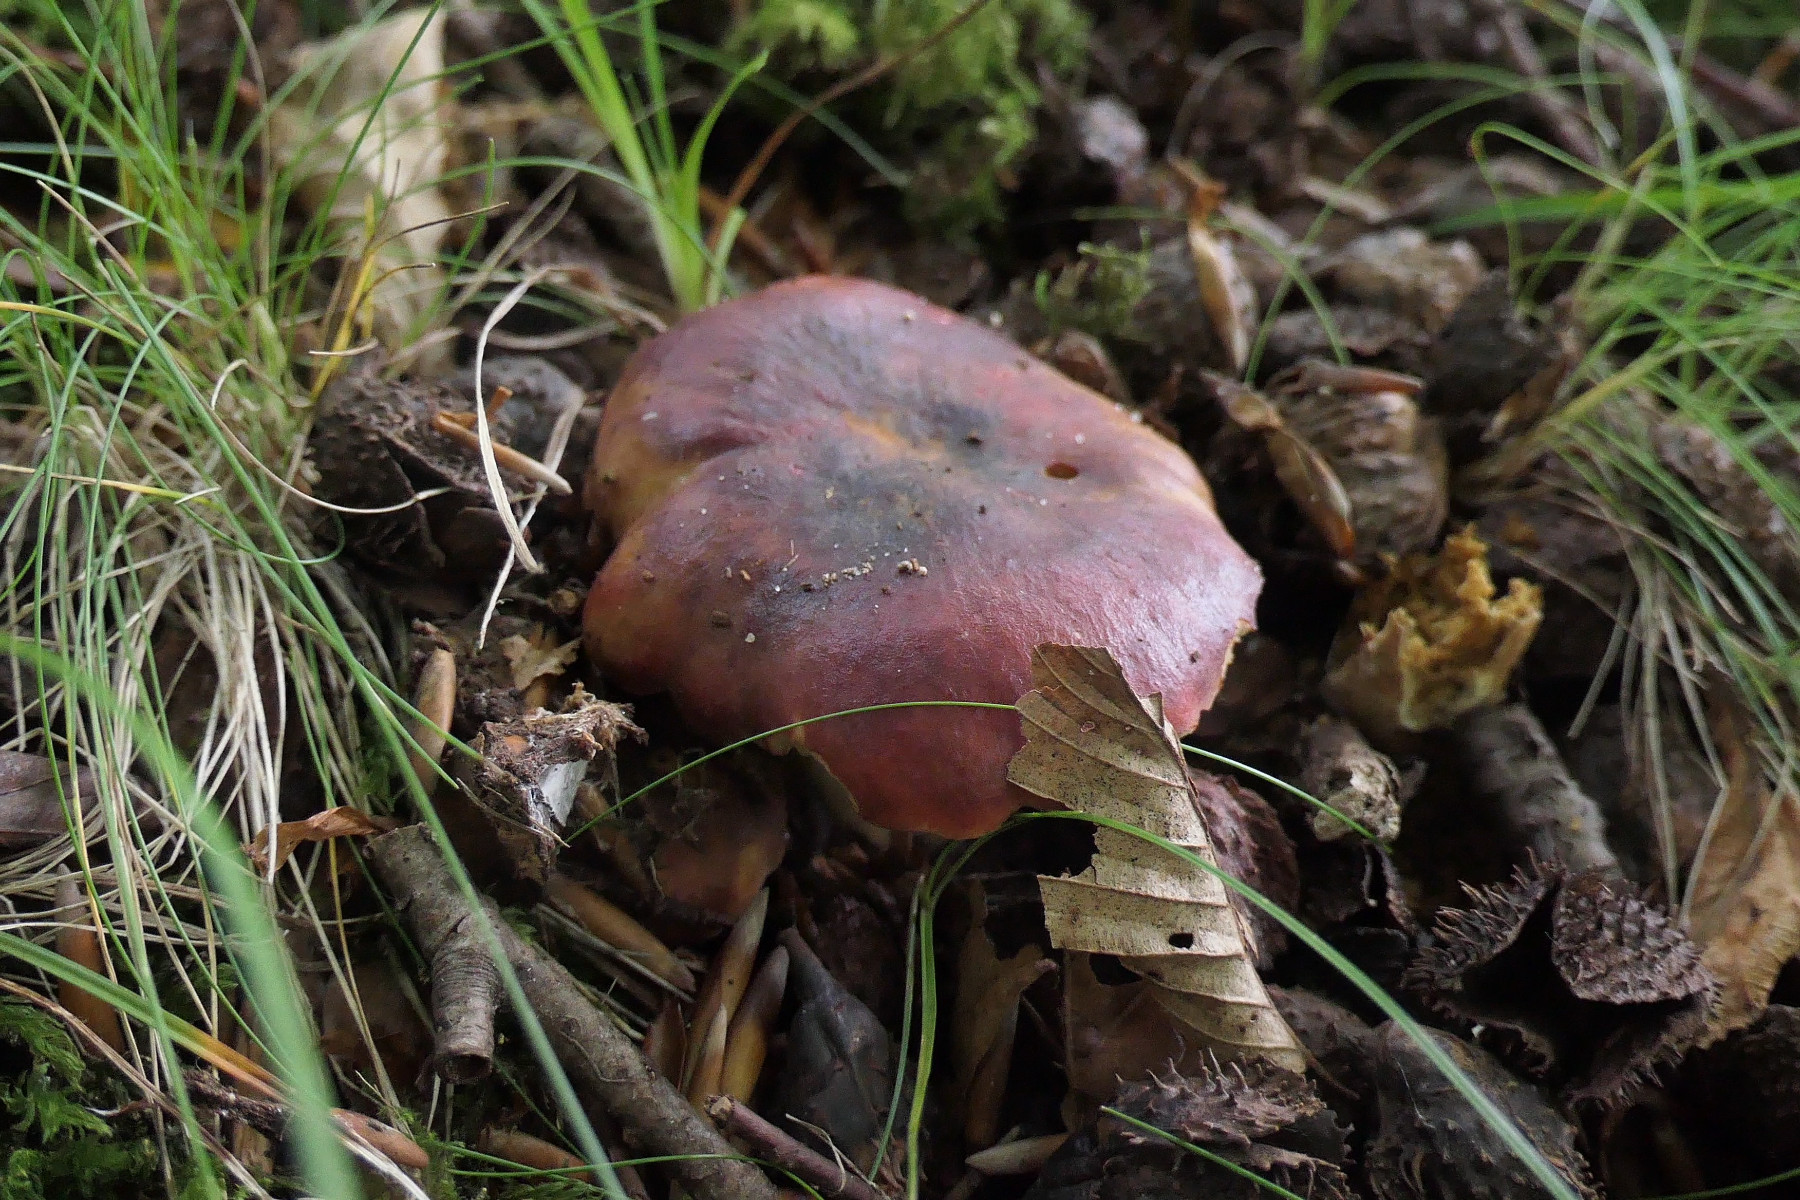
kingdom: Fungi
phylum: Basidiomycota
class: Agaricomycetes
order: Russulales
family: Russulaceae
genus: Russula
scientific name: Russula viscida
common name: knippe-skørhat
